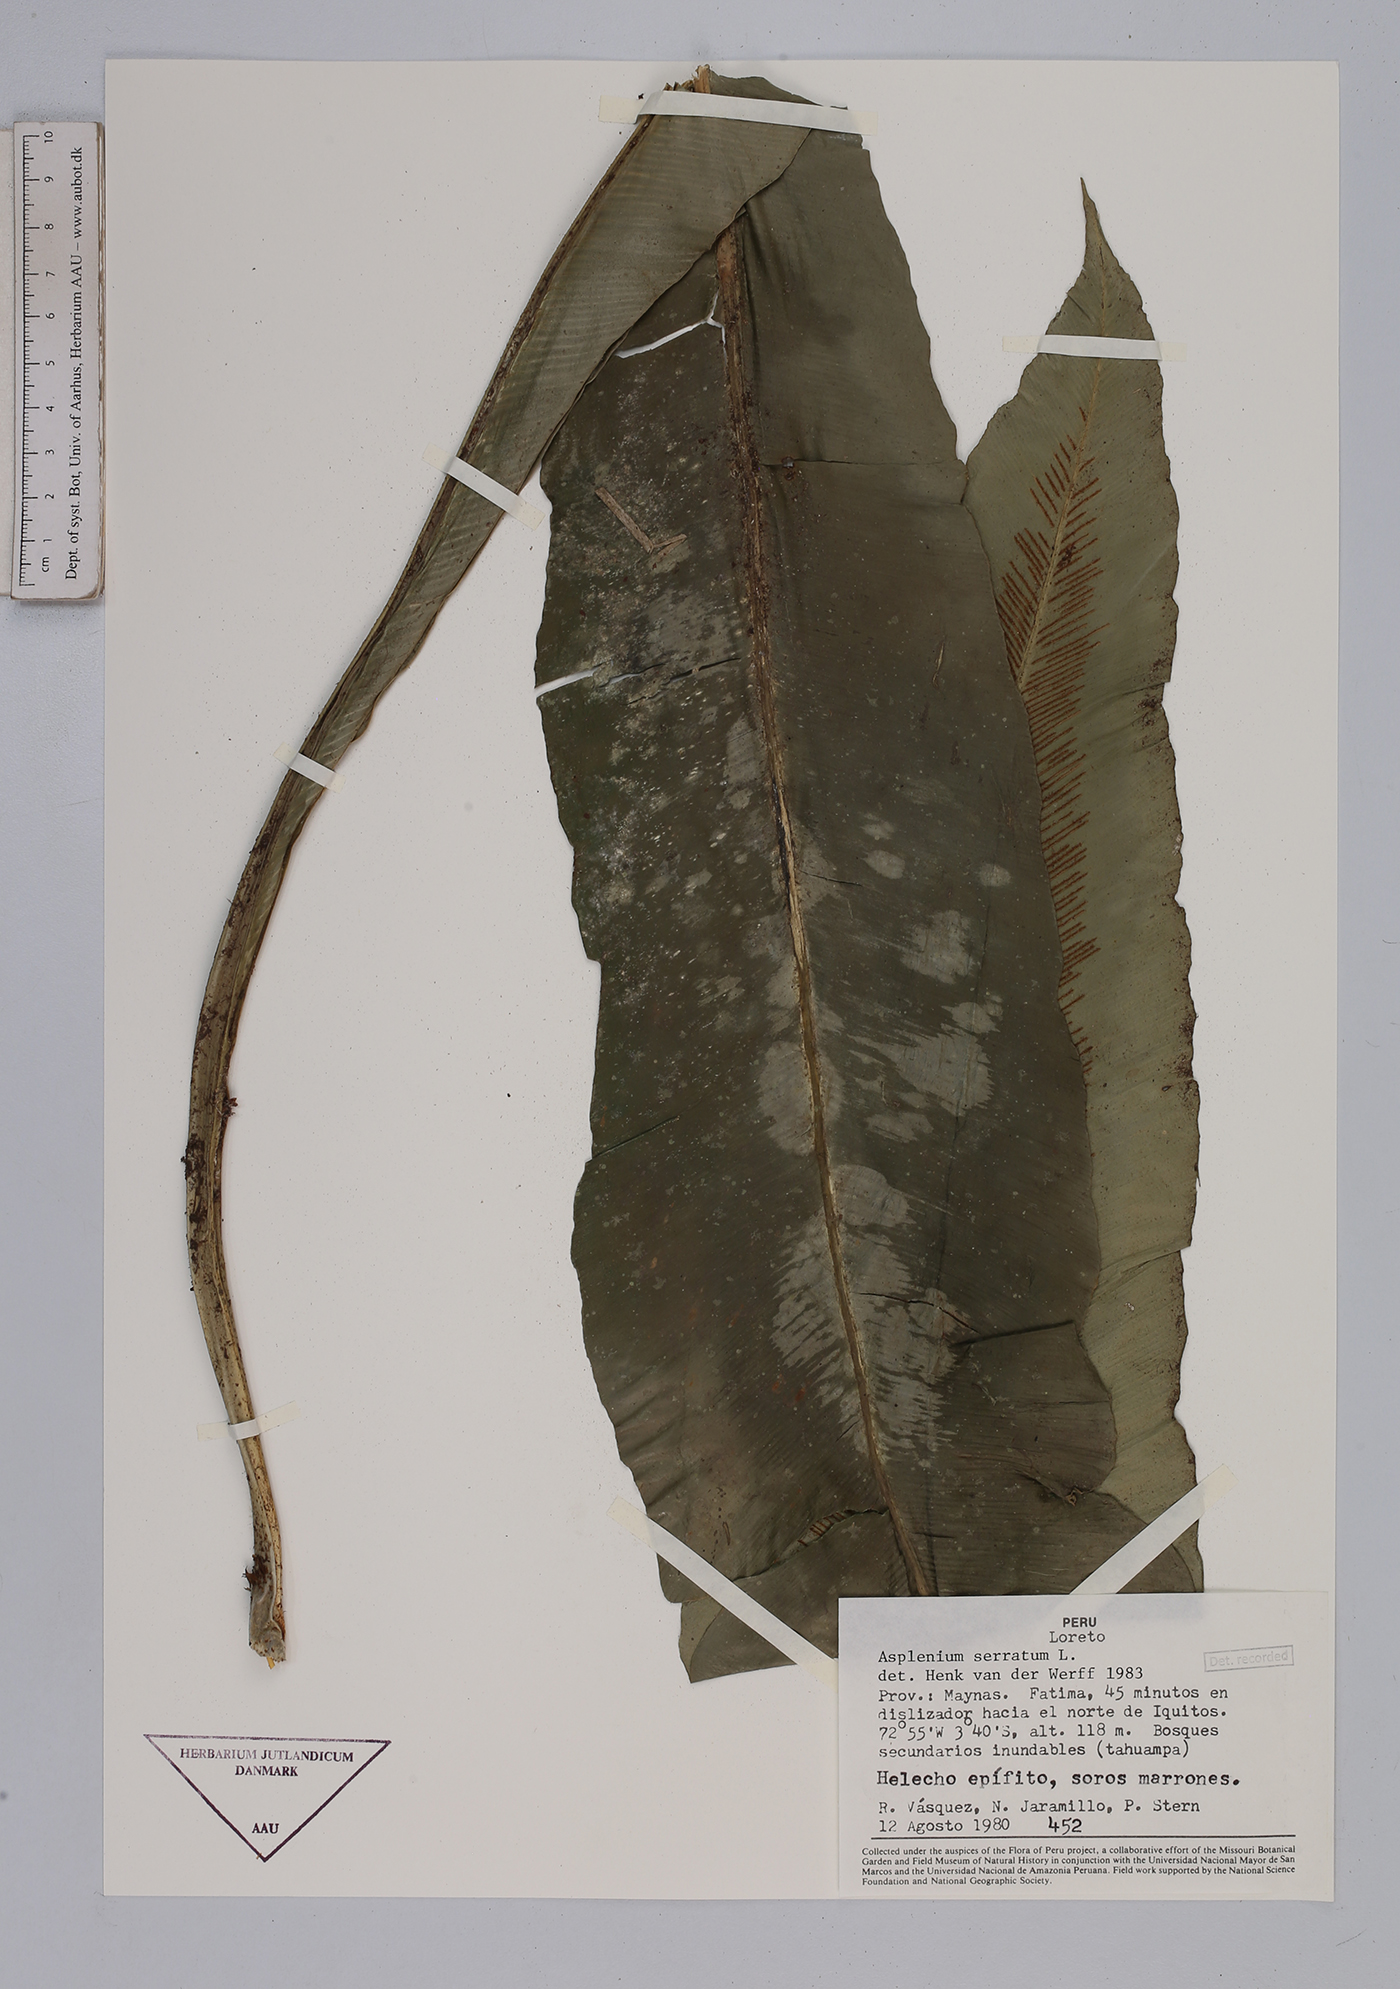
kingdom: Plantae
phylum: Tracheophyta
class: Polypodiopsida
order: Polypodiales
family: Aspleniaceae
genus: Asplenium
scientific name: Asplenium serratum
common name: Wild birdnest fern
